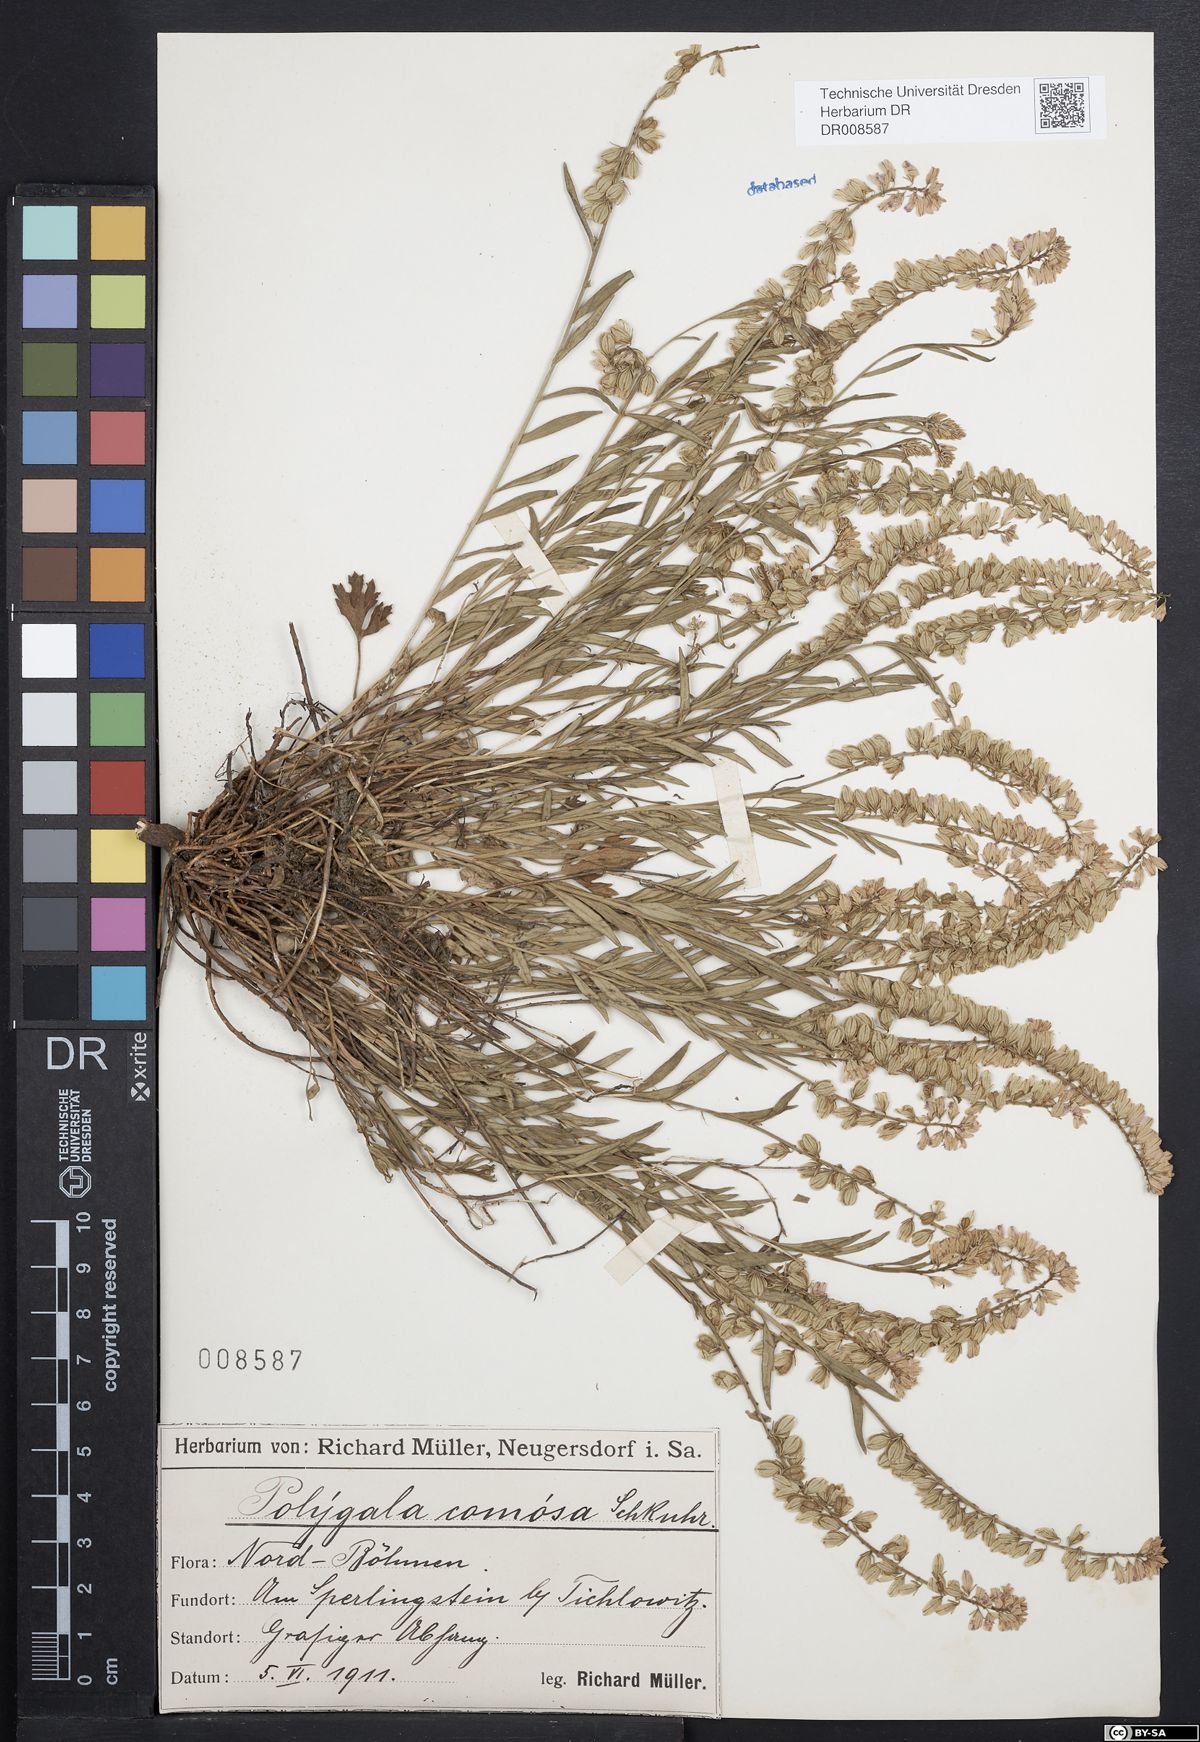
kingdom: Plantae
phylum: Tracheophyta
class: Magnoliopsida
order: Fabales
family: Polygalaceae
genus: Polygala
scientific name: Polygala comosa
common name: Tufted milkwort
